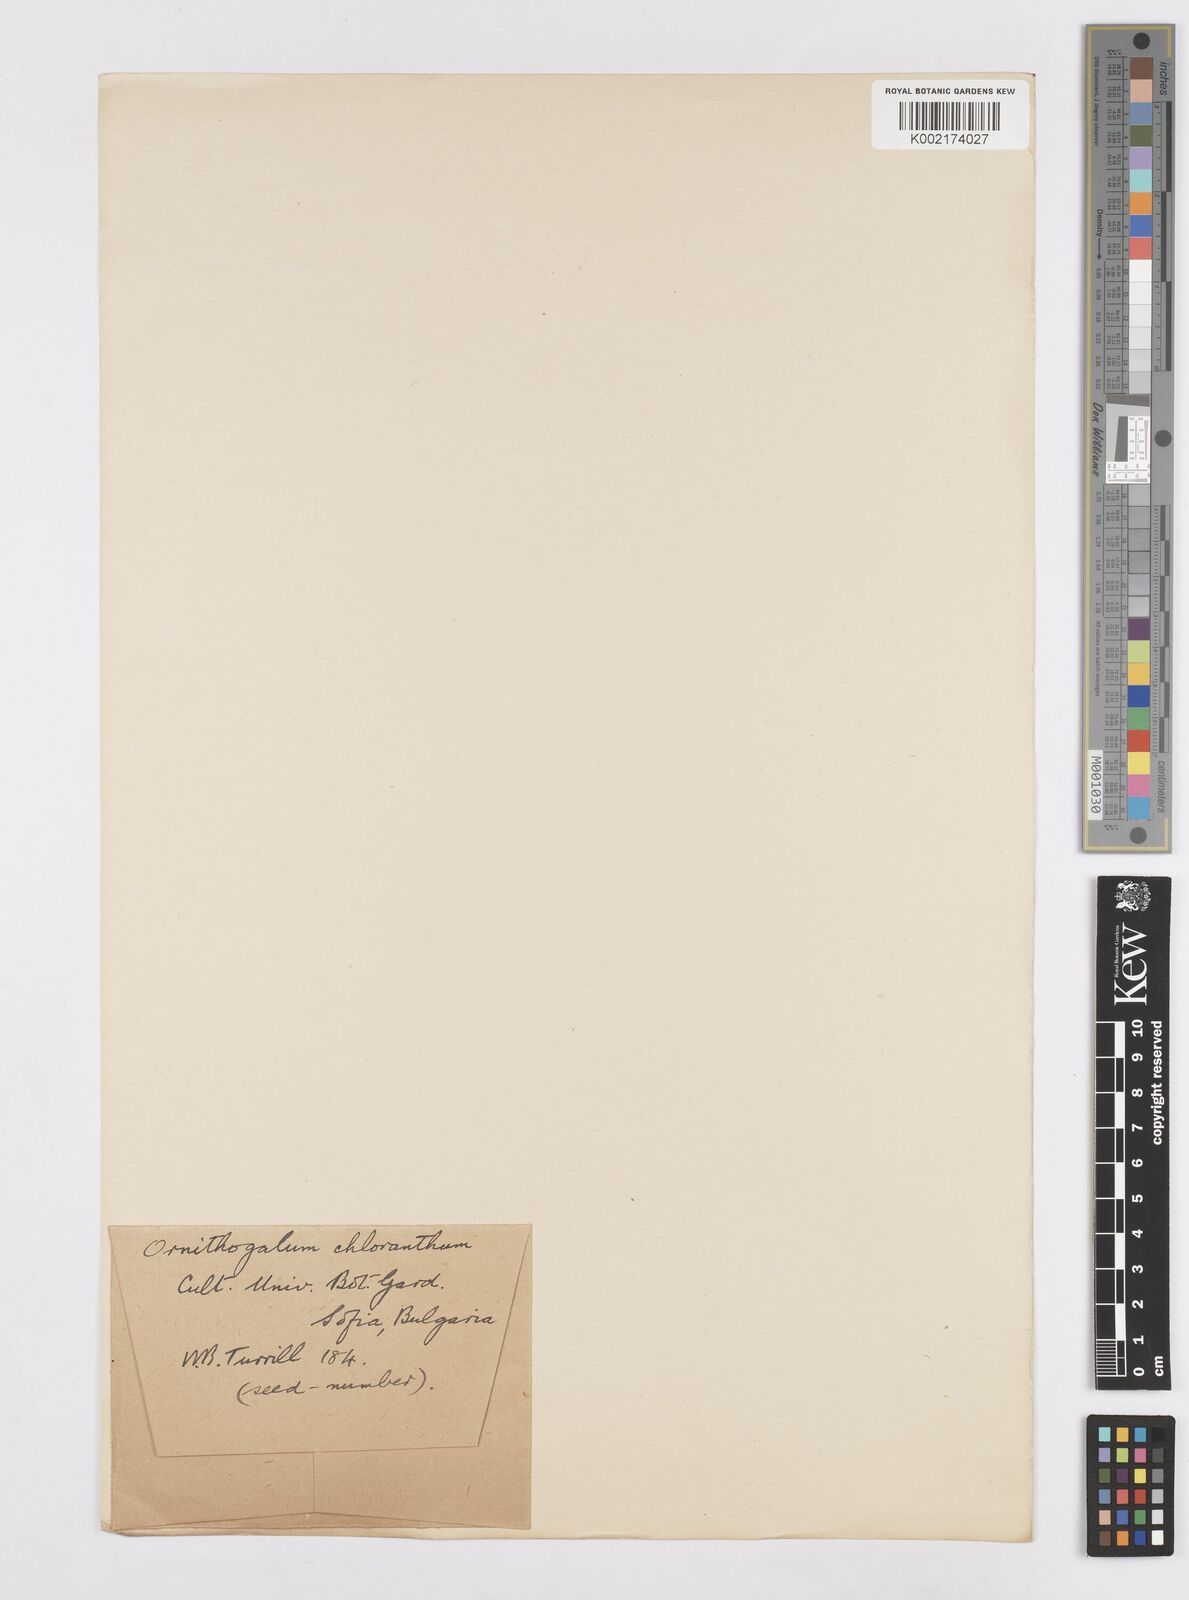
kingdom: Plantae
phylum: Tracheophyta
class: Liliopsida
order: Asparagales
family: Asparagaceae
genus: Ornithogalum
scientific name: Ornithogalum boucheanum
